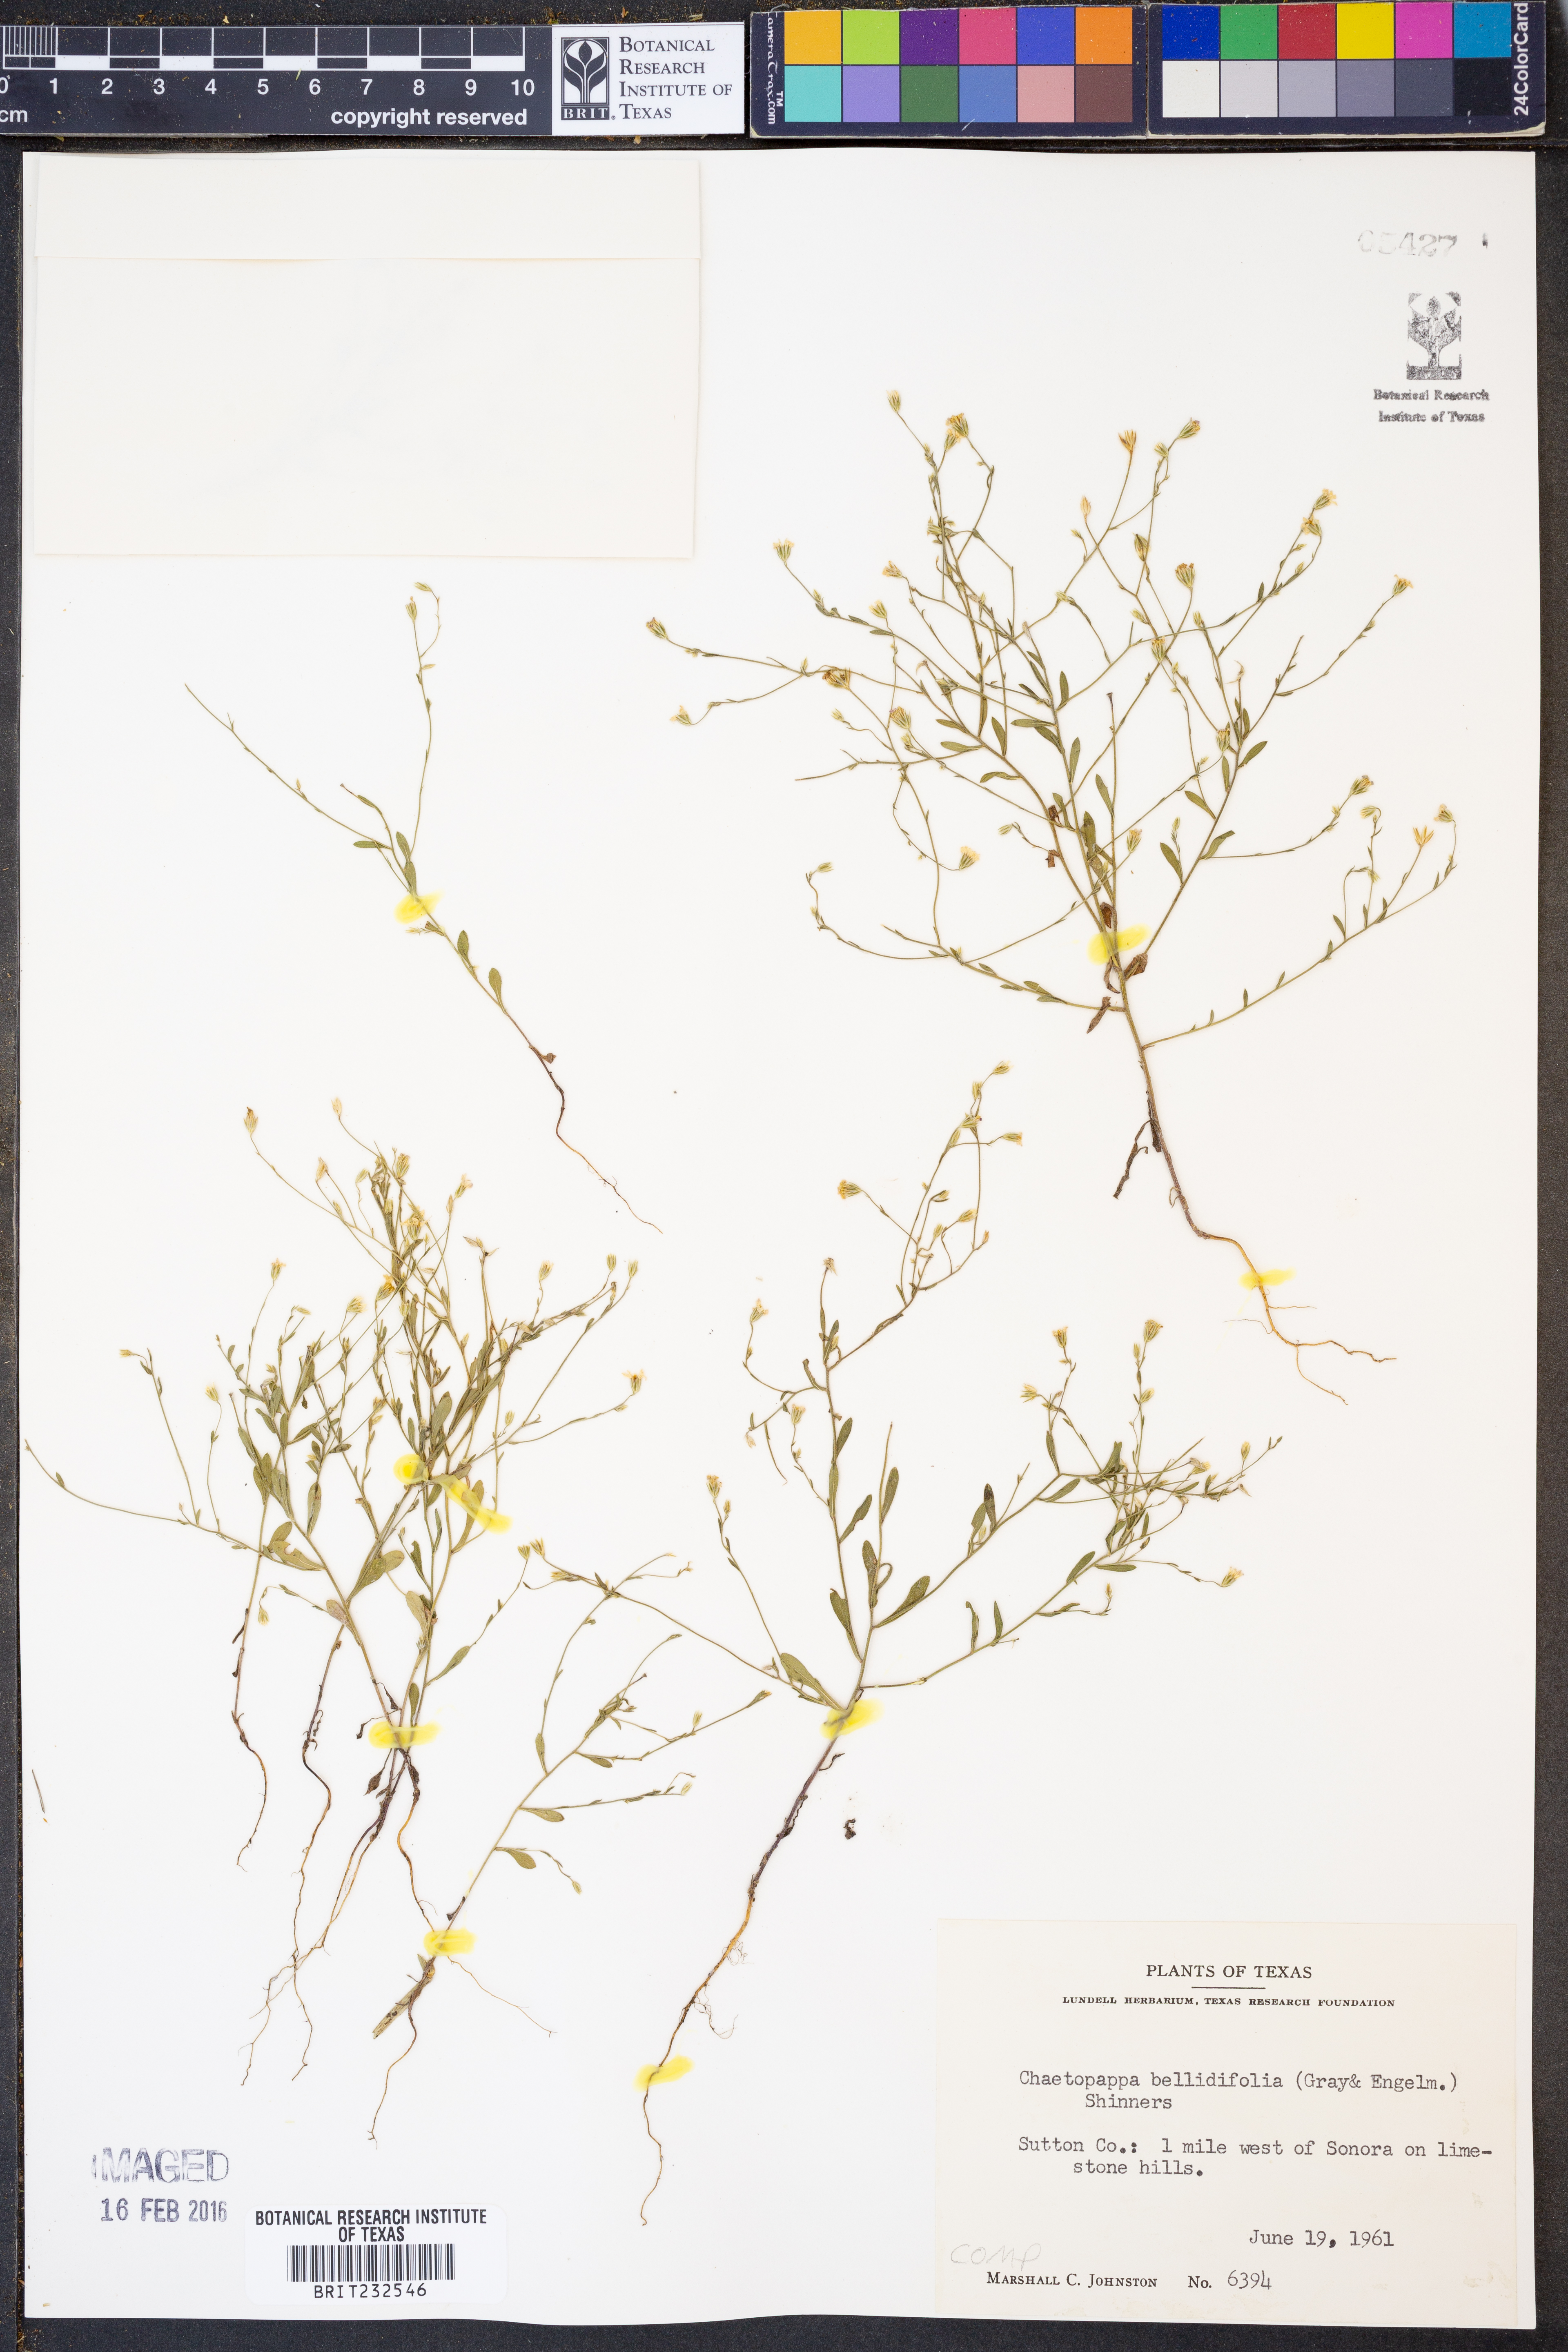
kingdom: Plantae
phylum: Tracheophyta
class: Magnoliopsida
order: Asterales
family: Asteraceae
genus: Chaetopappa
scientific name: Chaetopappa bellidifolia
